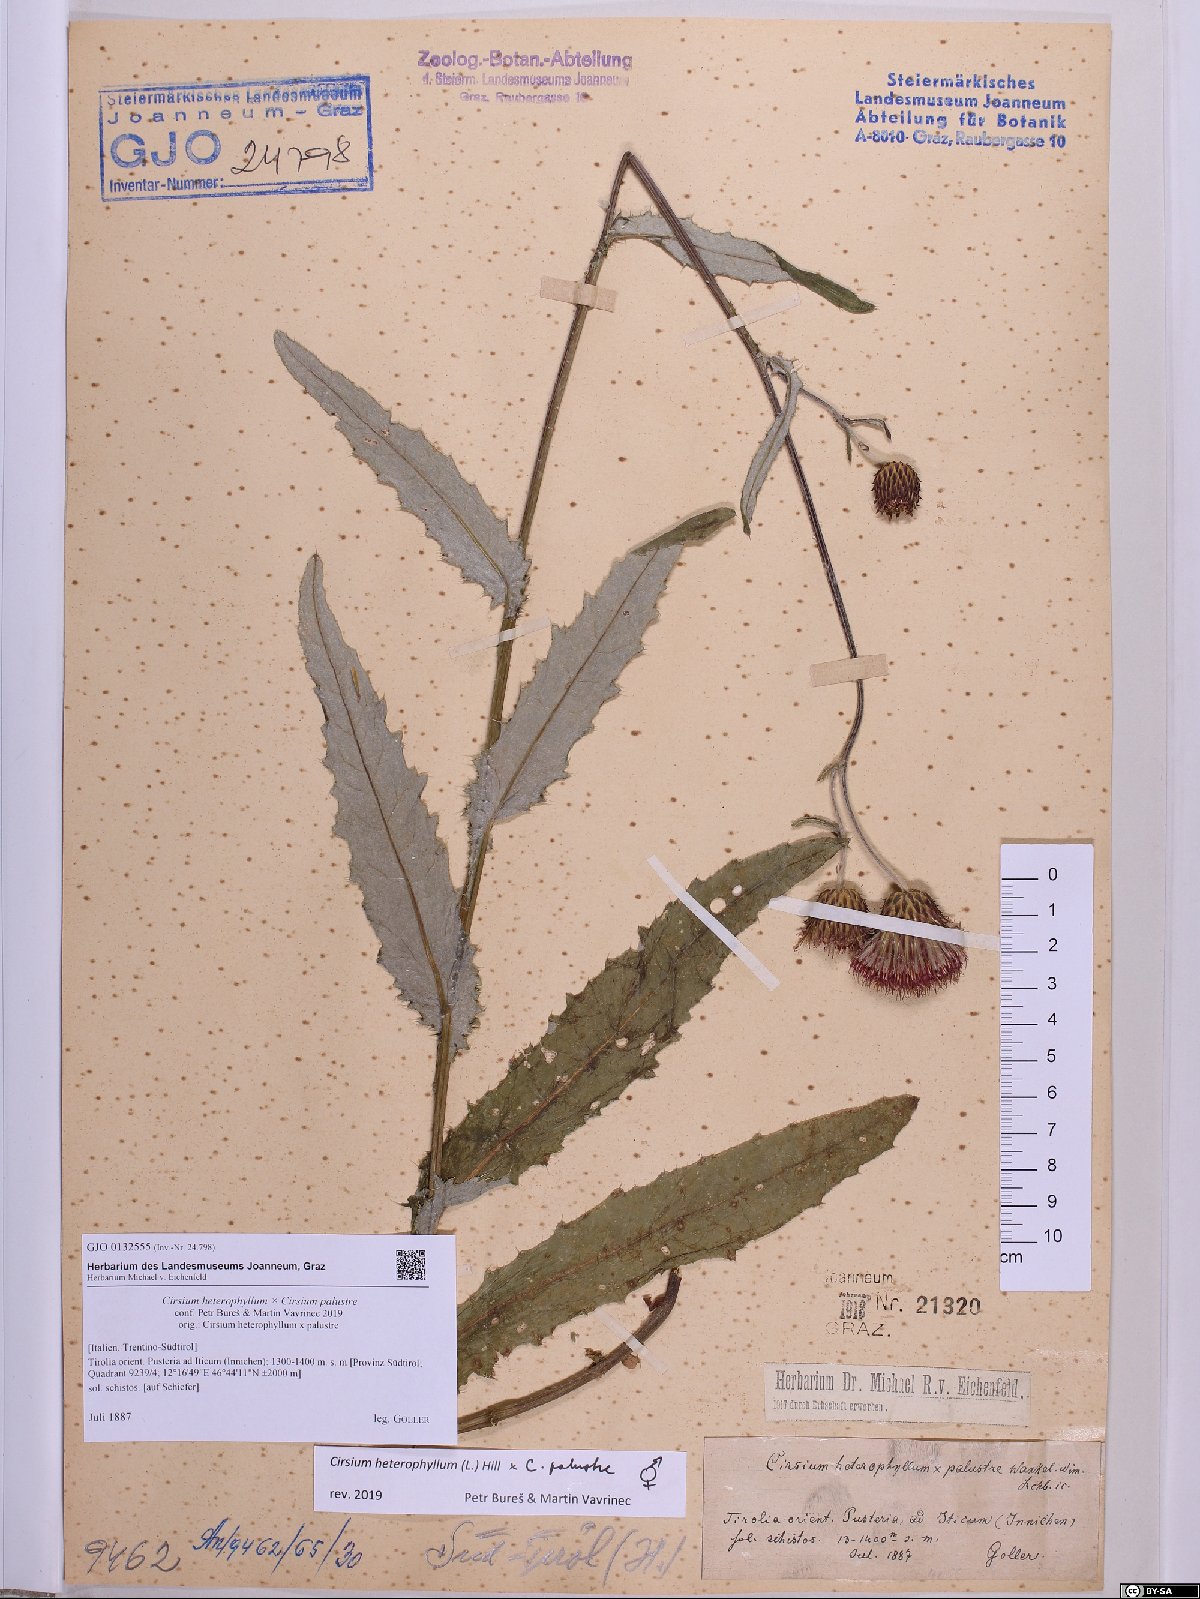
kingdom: Plantae
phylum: Tracheophyta
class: Magnoliopsida
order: Asterales
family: Asteraceae
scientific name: Asteraceae
